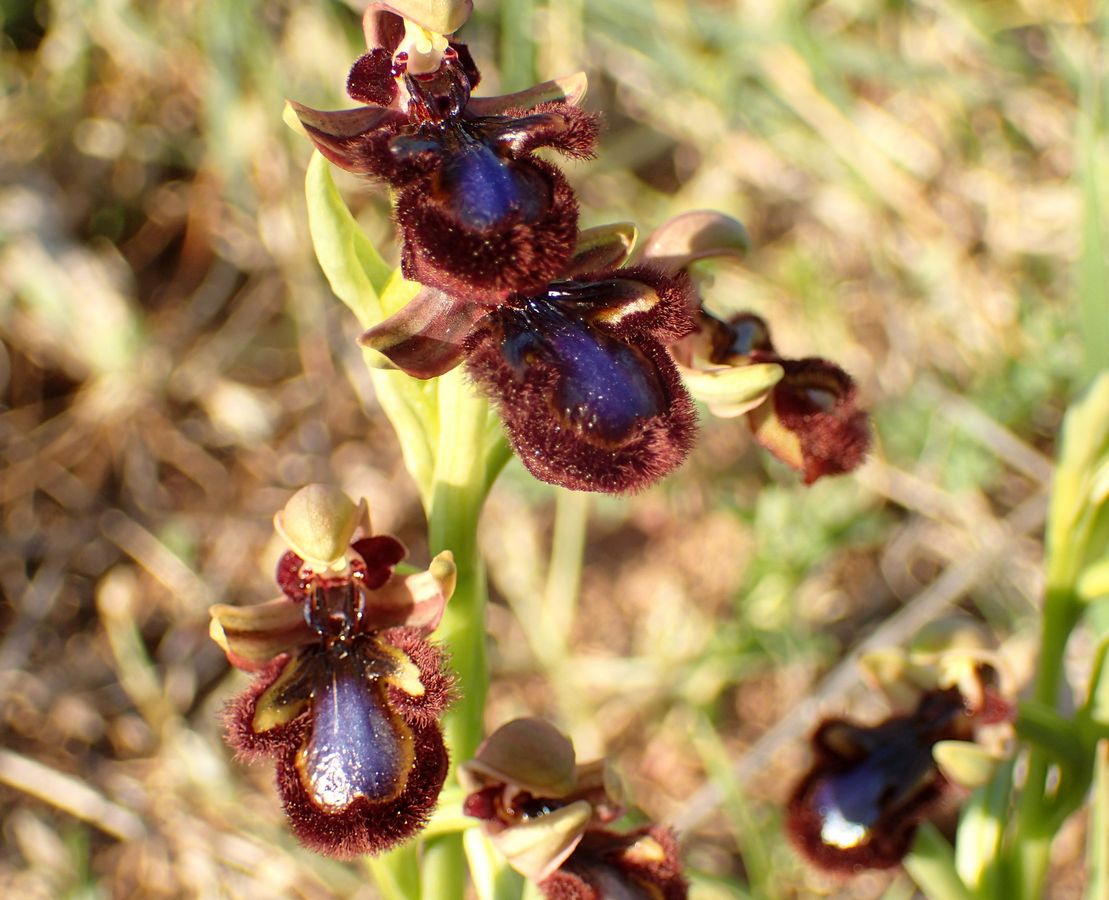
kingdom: Plantae
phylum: Tracheophyta
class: Liliopsida
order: Asparagales
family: Orchidaceae
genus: Ophrys
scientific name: Ophrys speculum
